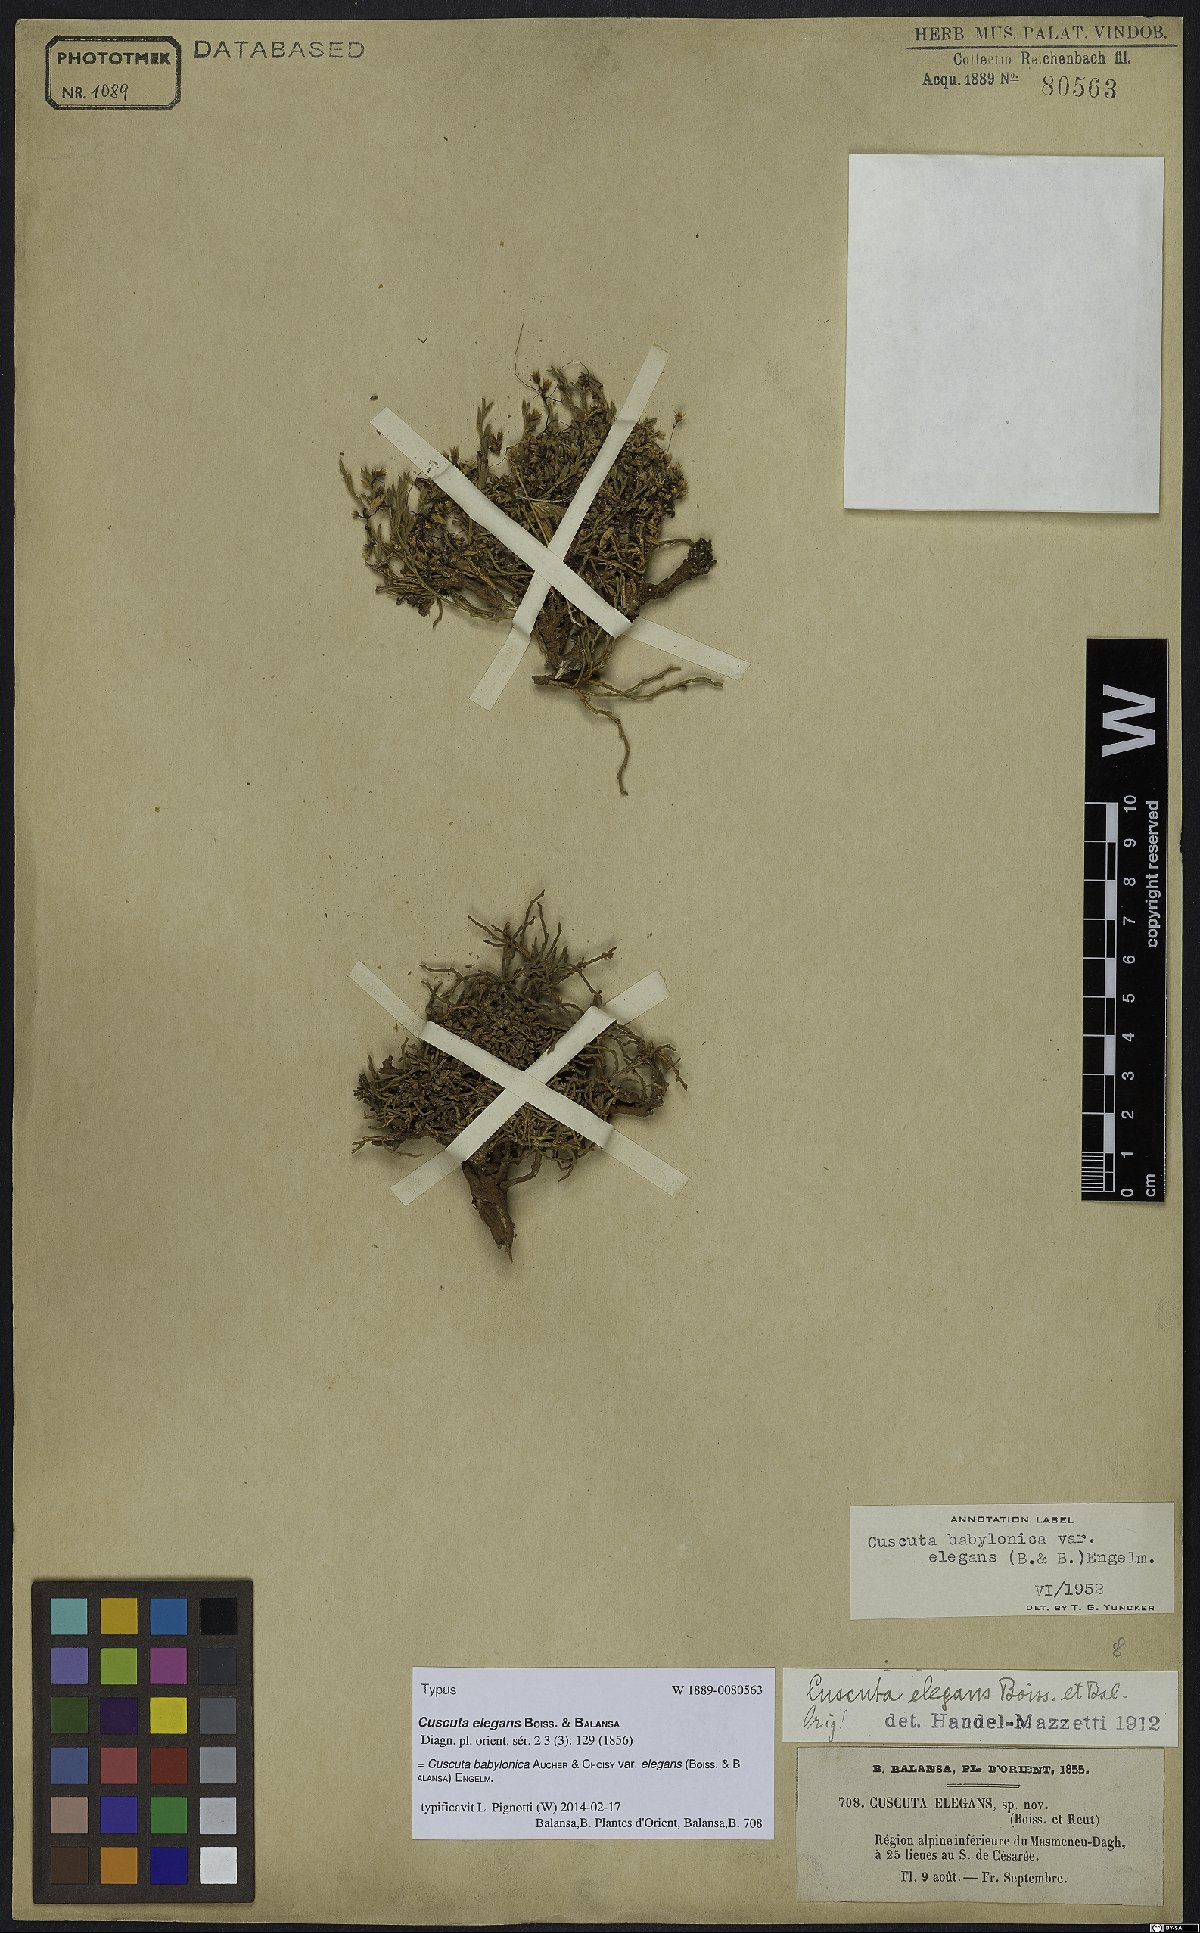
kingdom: Plantae
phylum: Tracheophyta
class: Magnoliopsida
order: Solanales
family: Convolvulaceae
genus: Cuscuta
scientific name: Cuscuta babylonica
